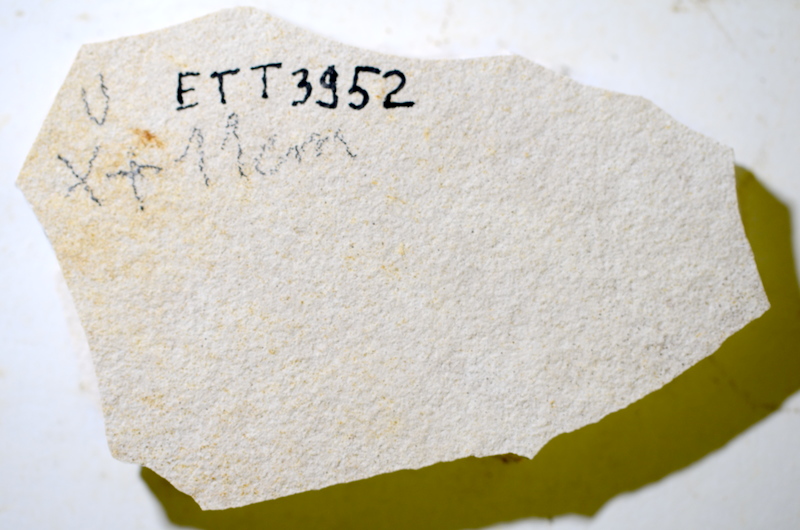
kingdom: Animalia
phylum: Chordata
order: Salmoniformes
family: Orthogonikleithridae
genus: Orthogonikleithrus
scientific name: Orthogonikleithrus hoelli
